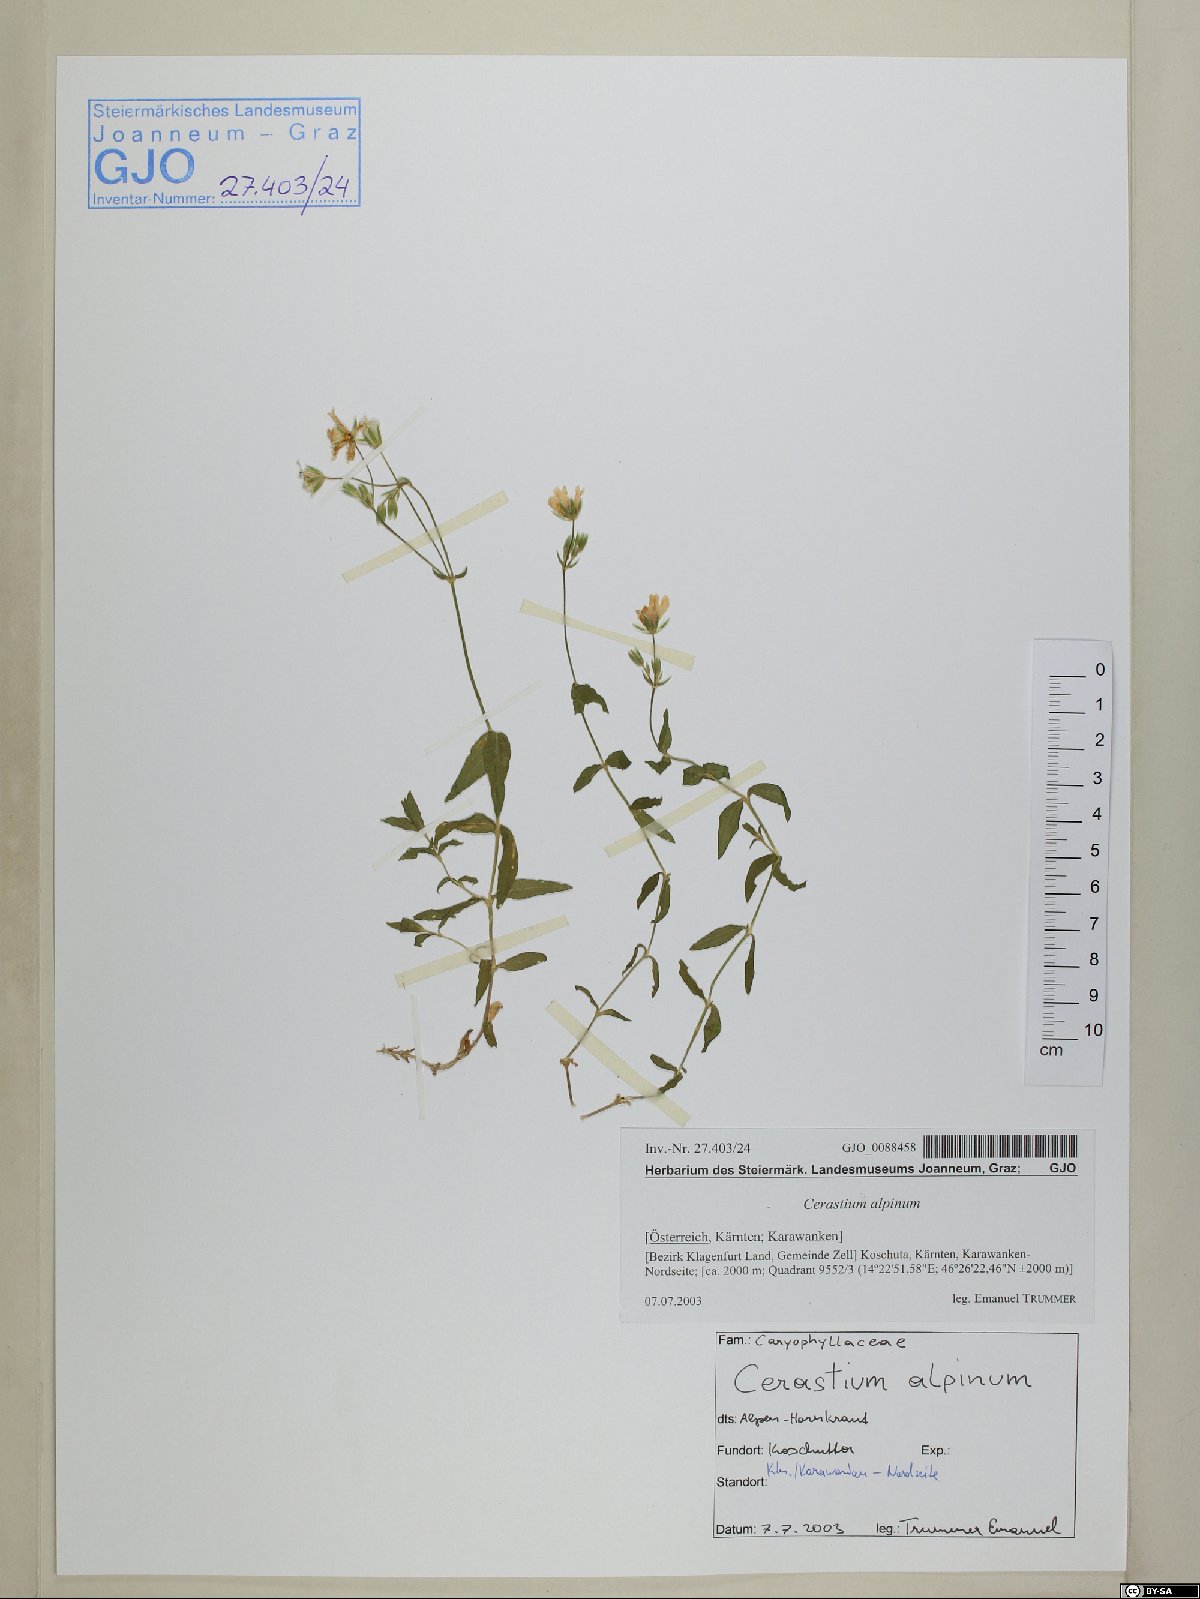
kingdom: Plantae
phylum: Tracheophyta
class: Magnoliopsida
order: Caryophyllales
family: Caryophyllaceae
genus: Cerastium
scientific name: Cerastium alpinum
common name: Alpine mouse-ear
